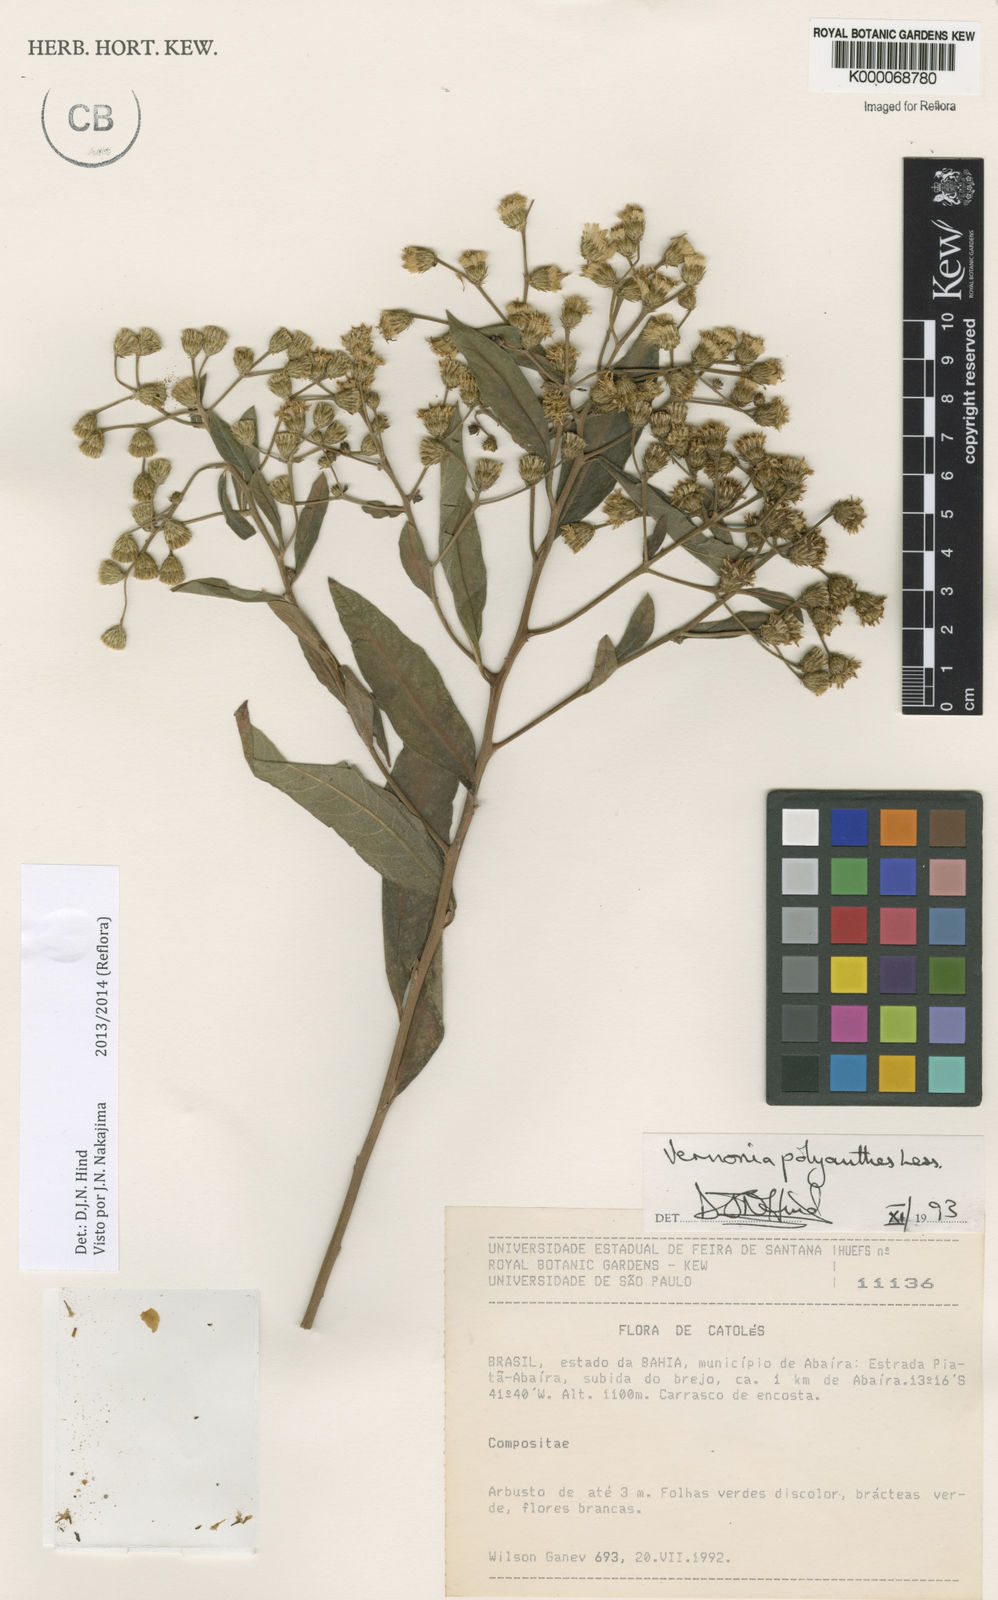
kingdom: Plantae
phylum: Tracheophyta
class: Magnoliopsida
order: Asterales
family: Asteraceae
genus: Vernonanthura
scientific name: Vernonanthura polyanthes
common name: Tree aster
